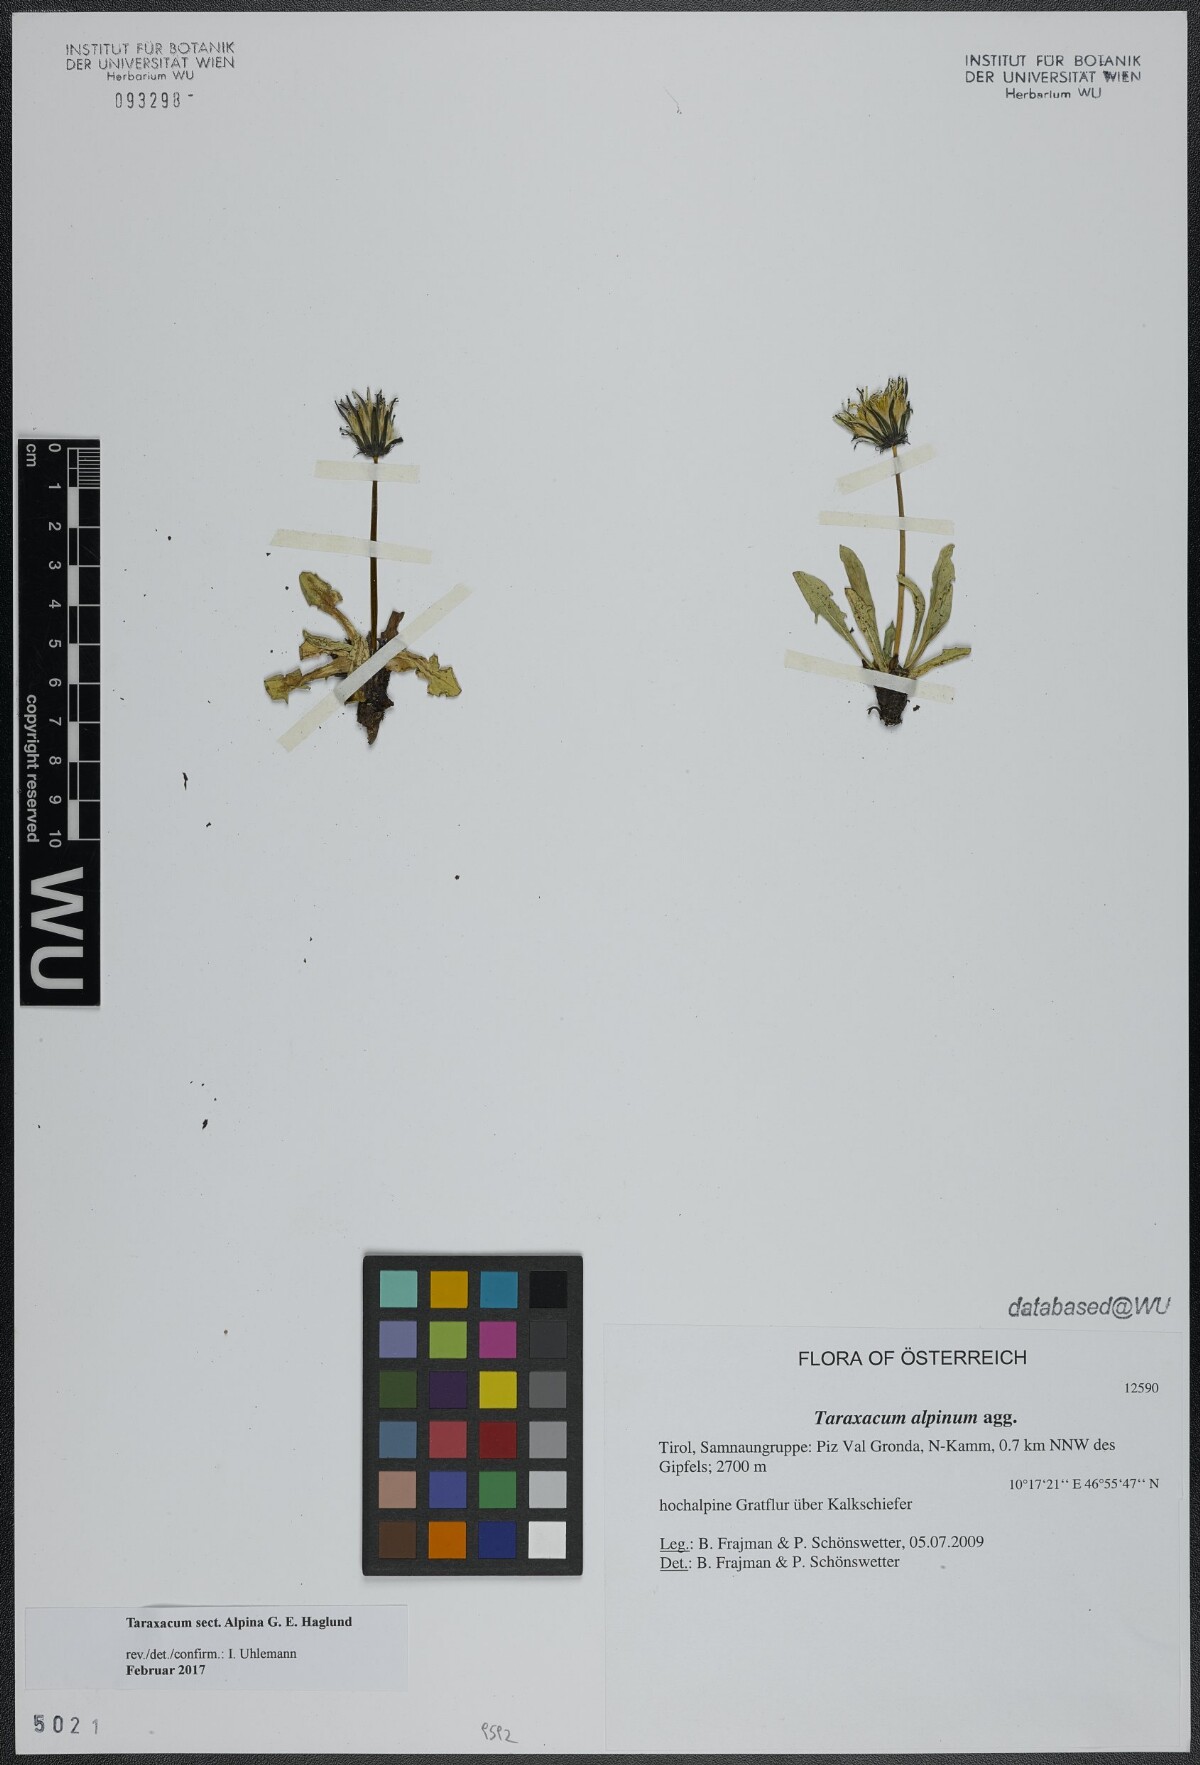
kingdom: Plantae
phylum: Tracheophyta
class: Magnoliopsida
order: Asterales
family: Asteraceae
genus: Taraxacum
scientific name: Taraxacum
